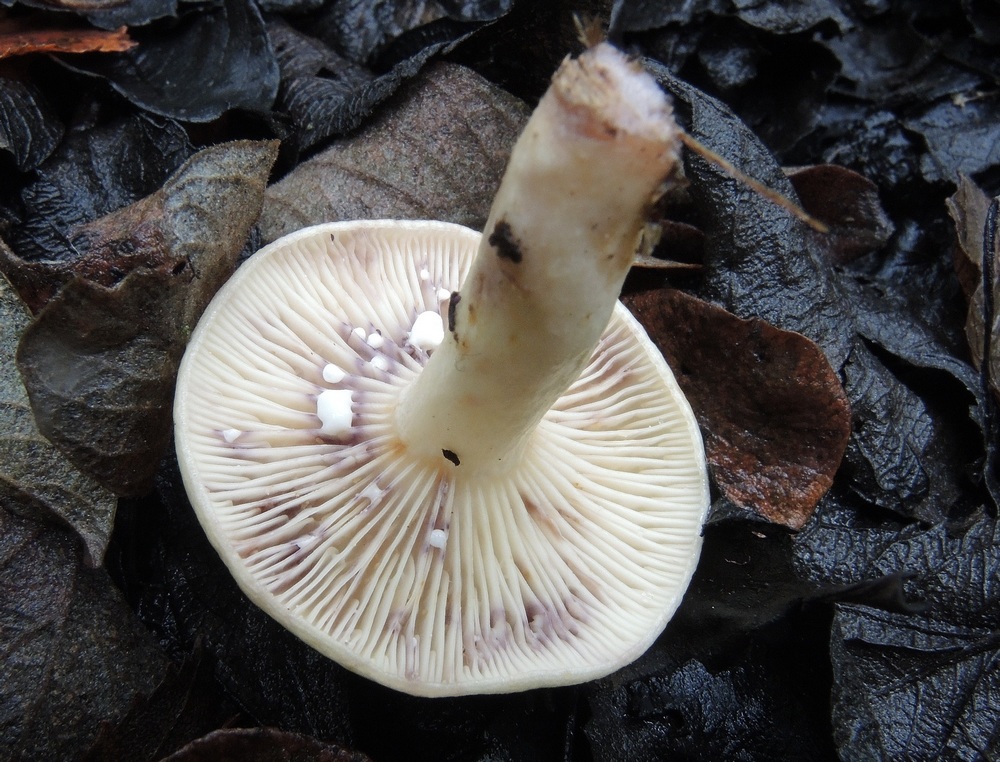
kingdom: Fungi
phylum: Basidiomycota
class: Agaricomycetes
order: Russulales
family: Russulaceae
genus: Lactarius
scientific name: Lactarius aspideus
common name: pile-mælkehat
